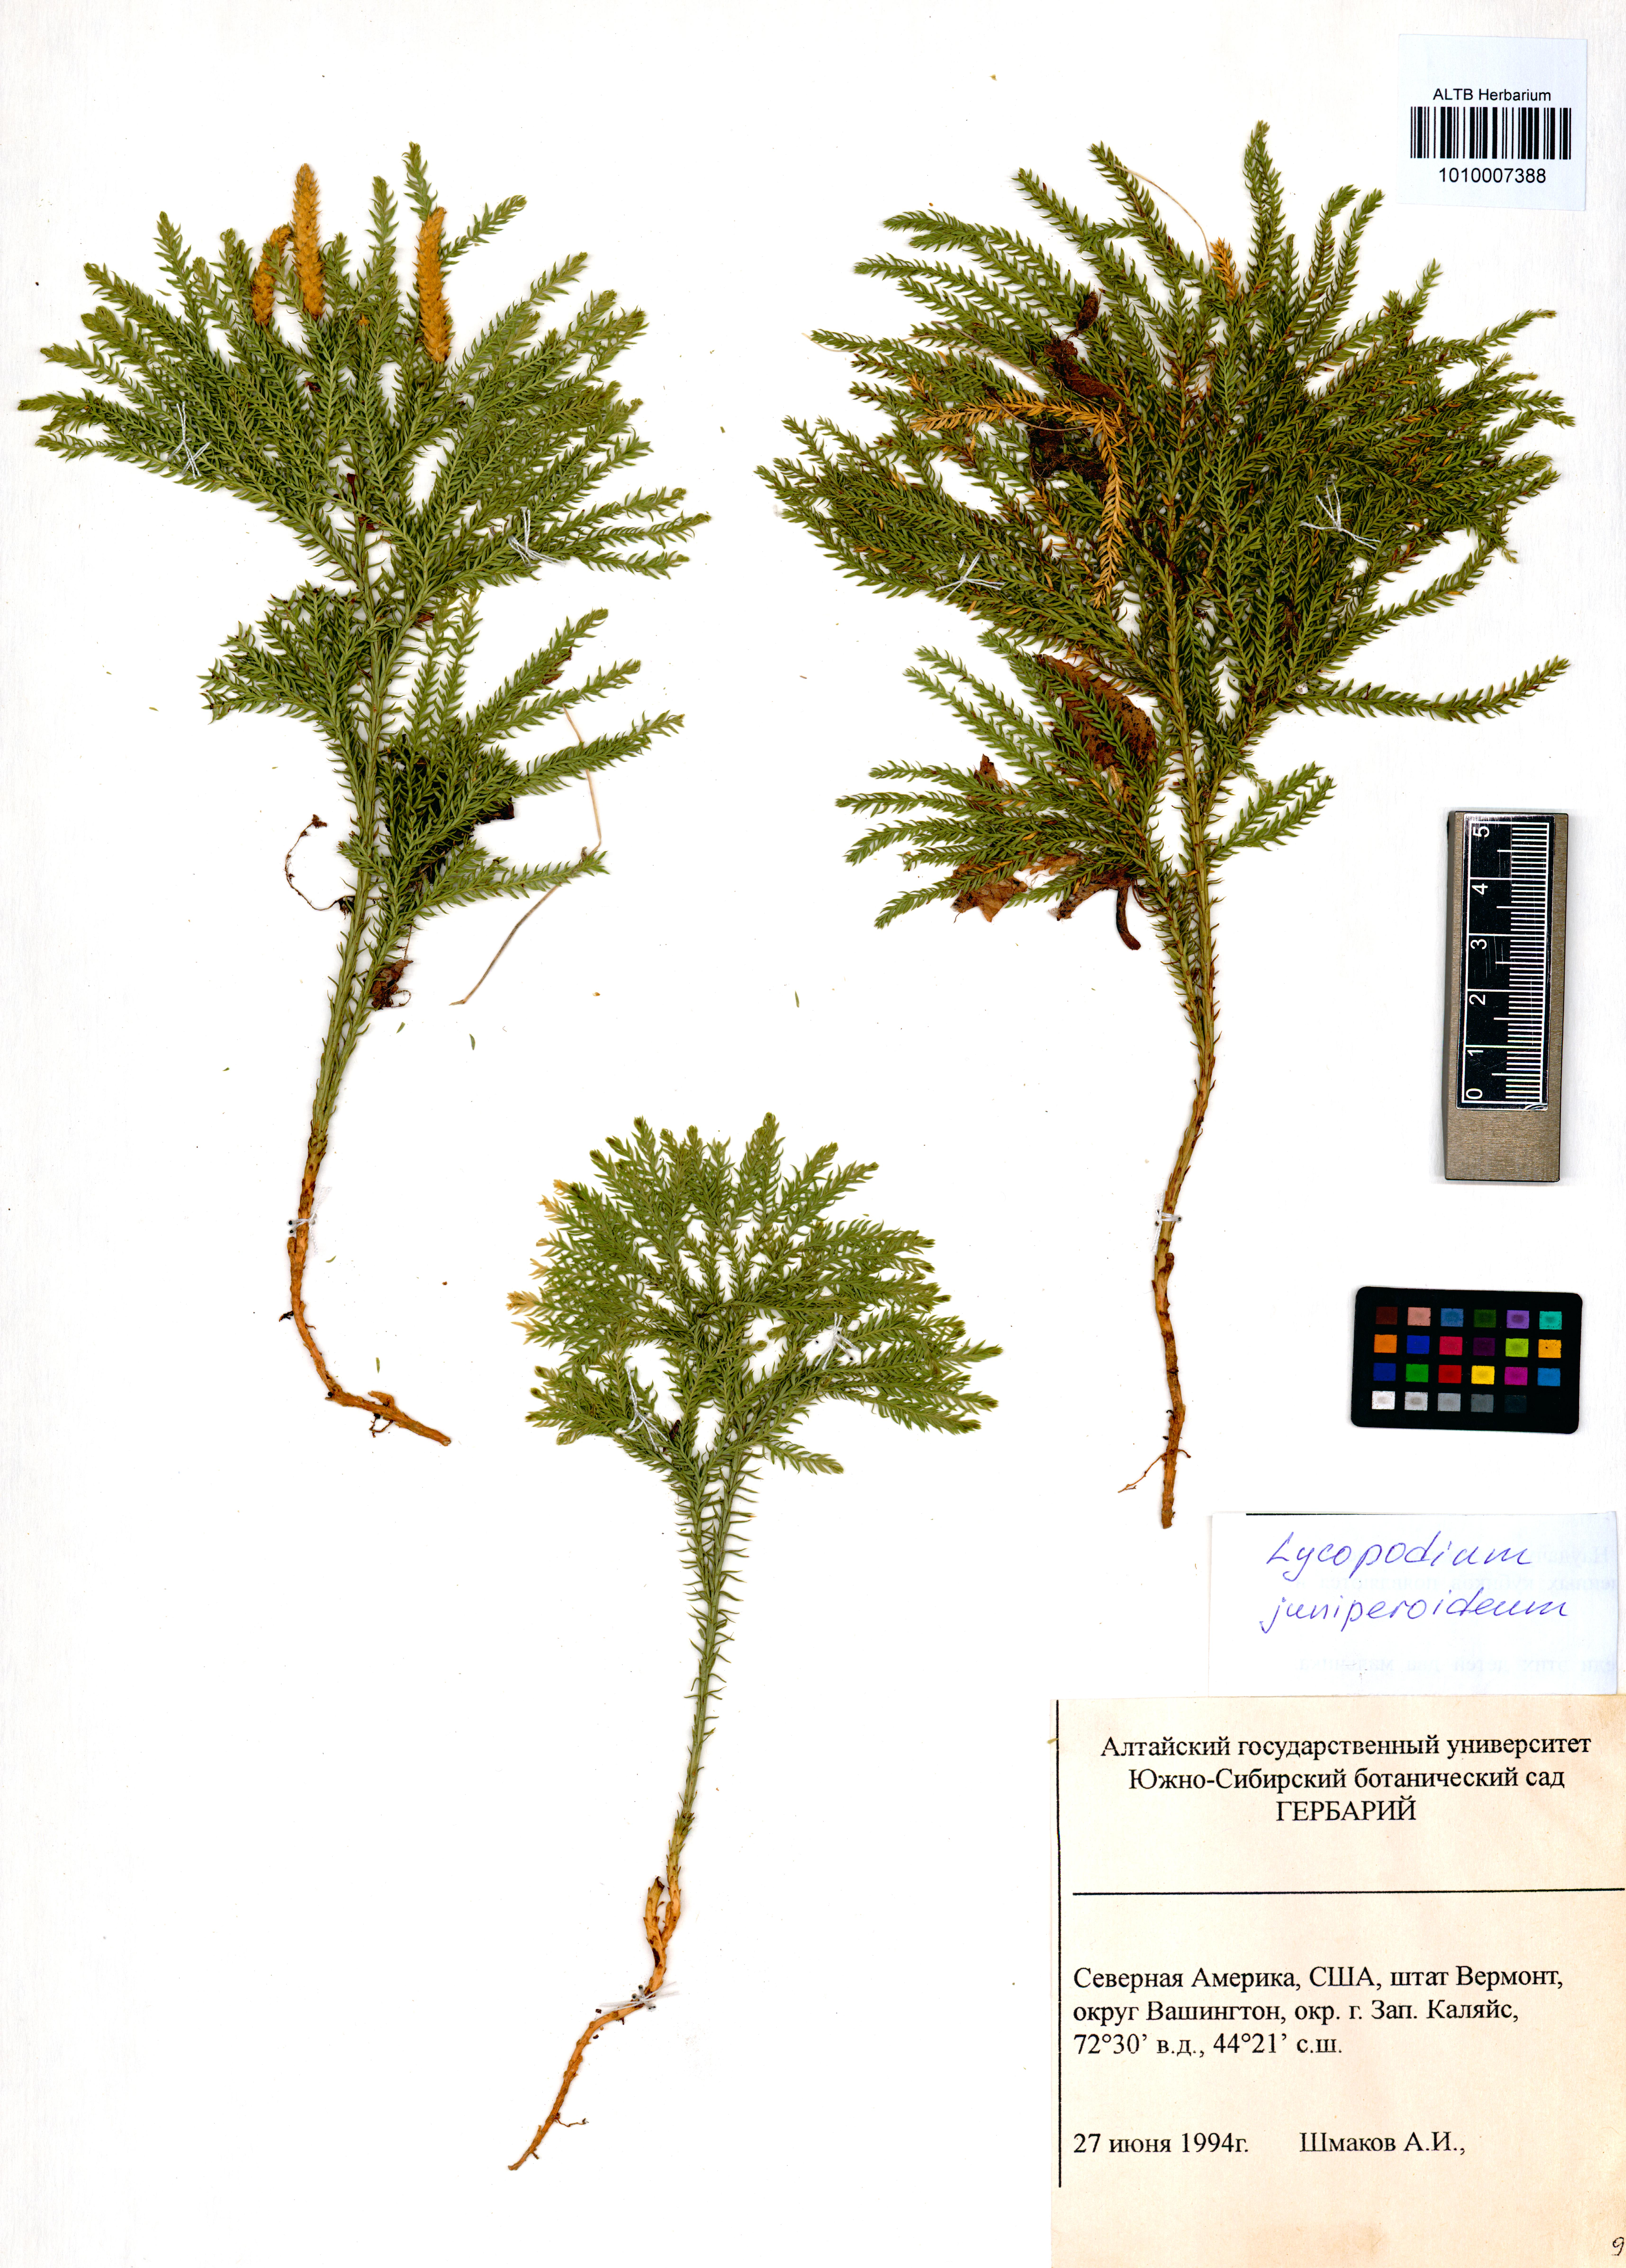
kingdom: Plantae
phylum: Tracheophyta
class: Lycopodiopsida
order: Lycopodiales
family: Lycopodiaceae
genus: Dendrolycopodium
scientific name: Dendrolycopodium juniperoideum
